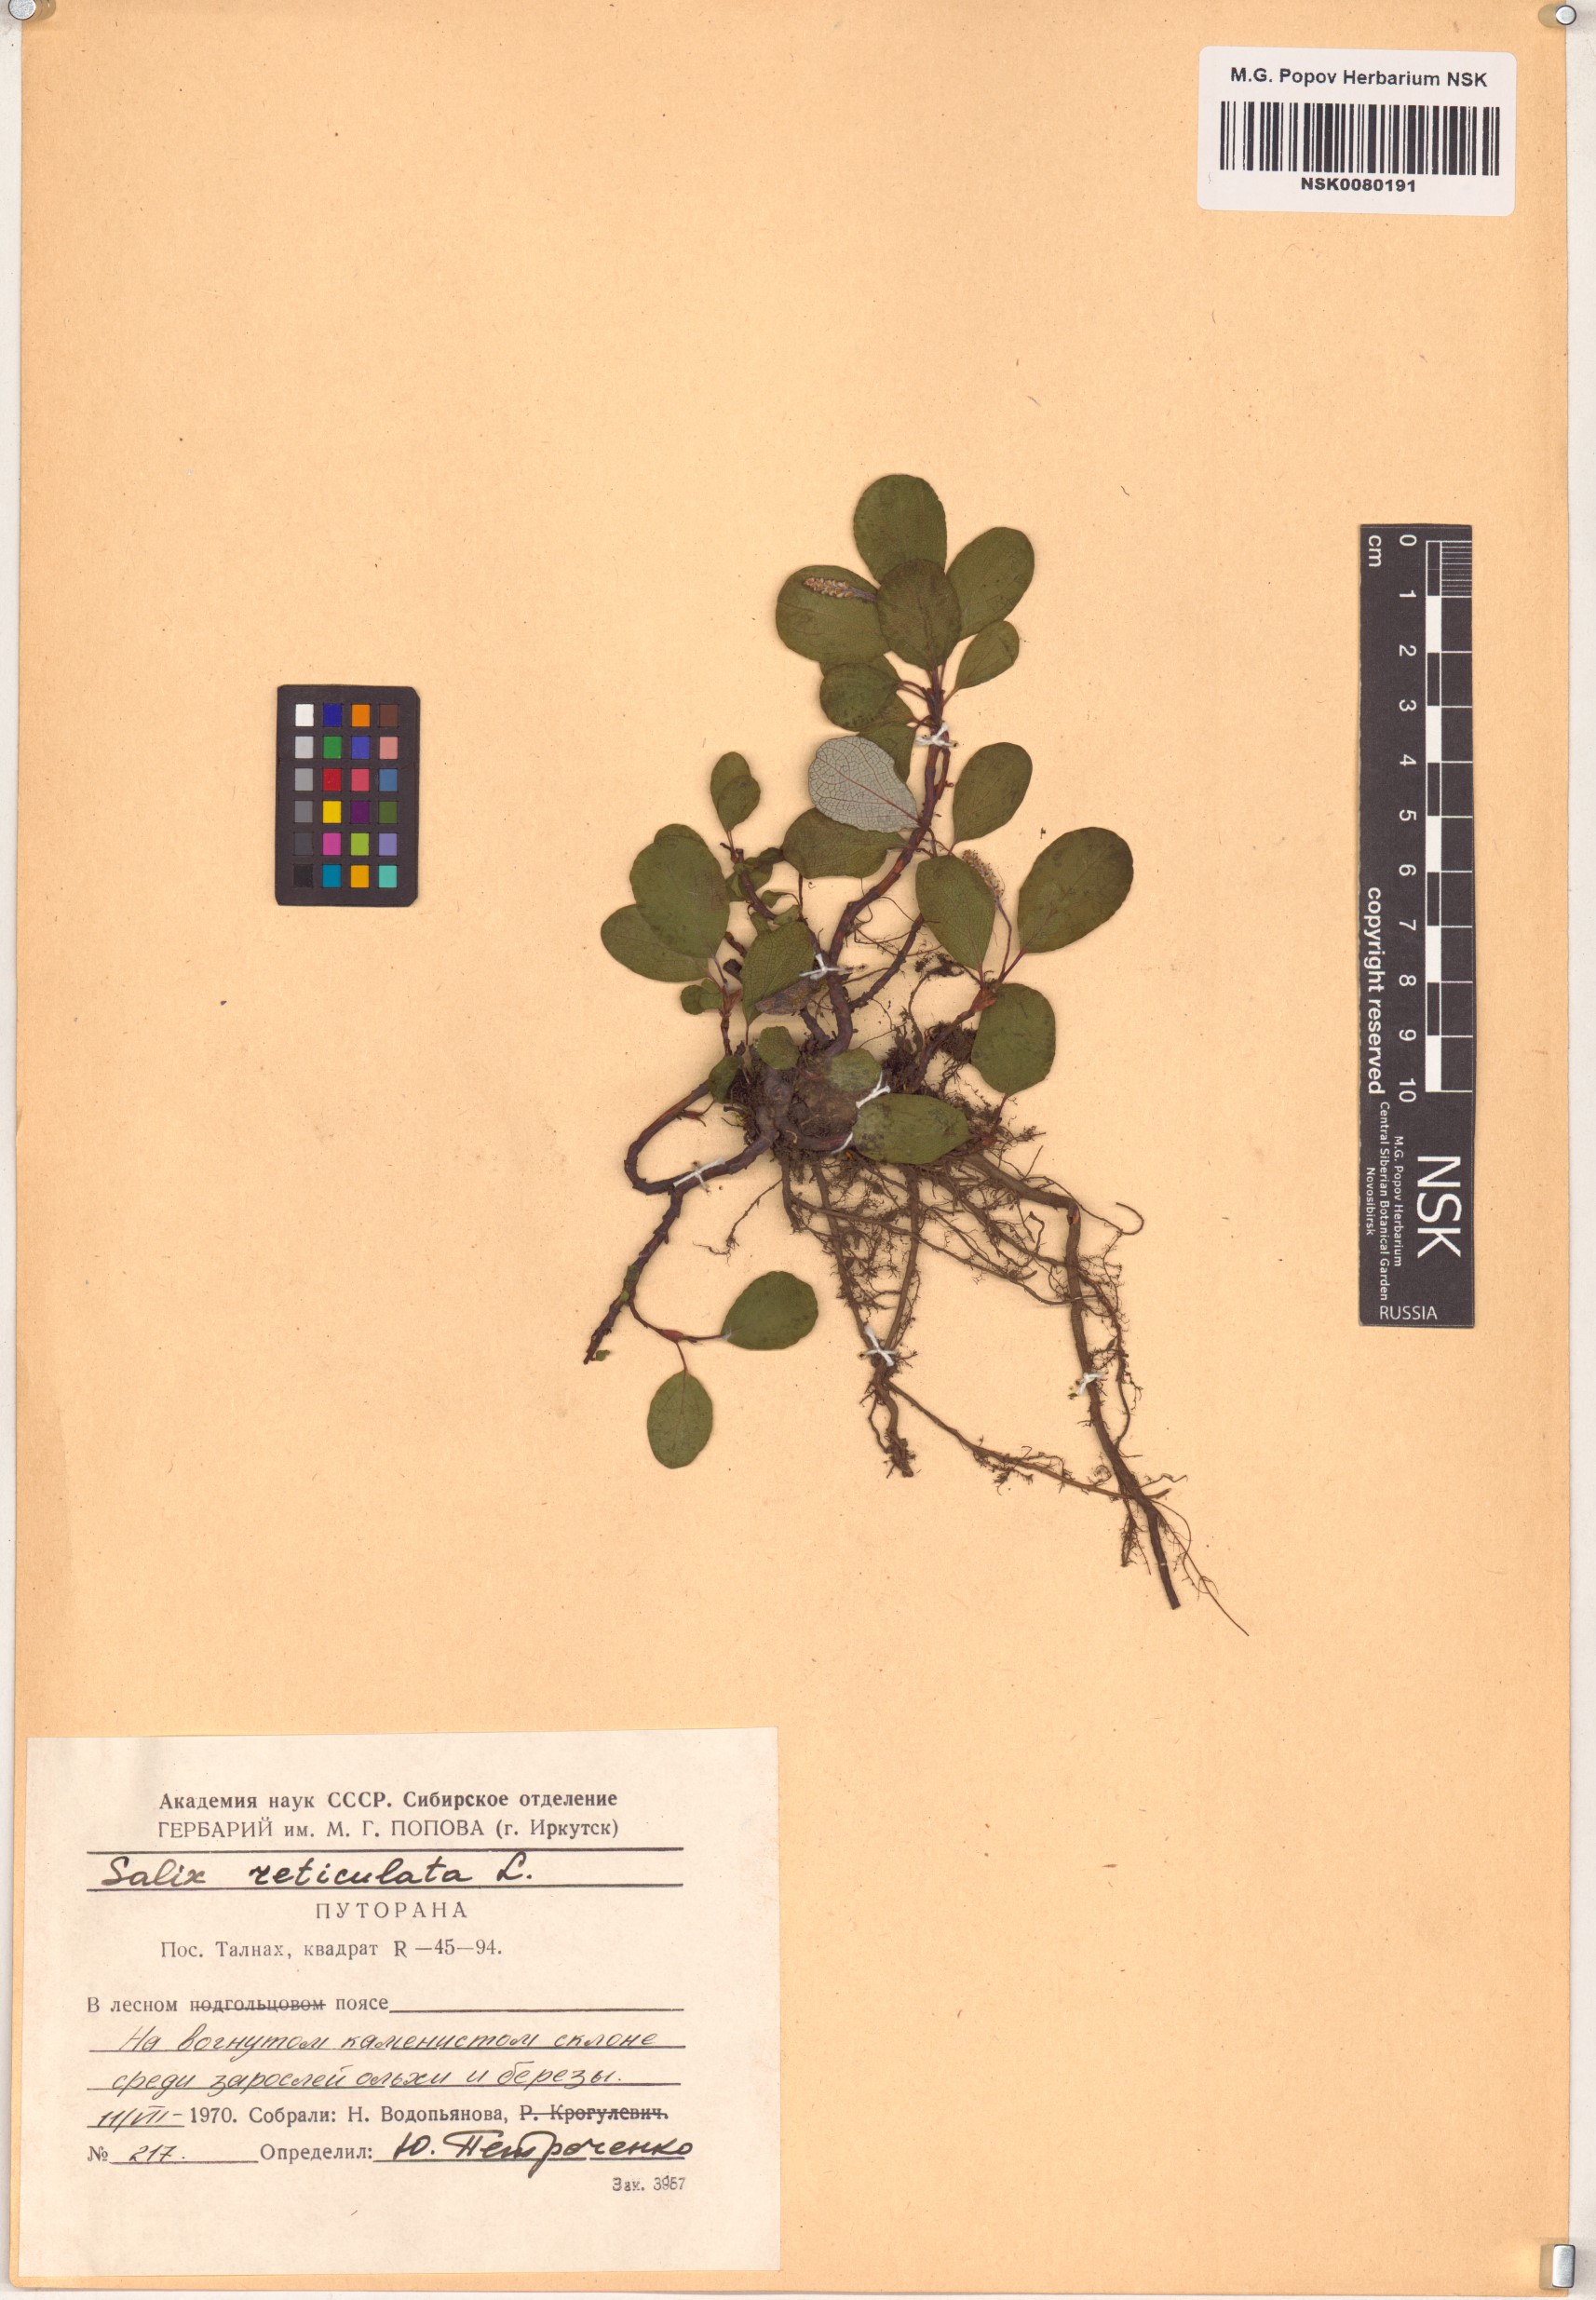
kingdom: Plantae
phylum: Tracheophyta
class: Magnoliopsida
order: Malpighiales
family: Salicaceae
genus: Salix
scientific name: Salix reticulata
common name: Net-leaved willow
